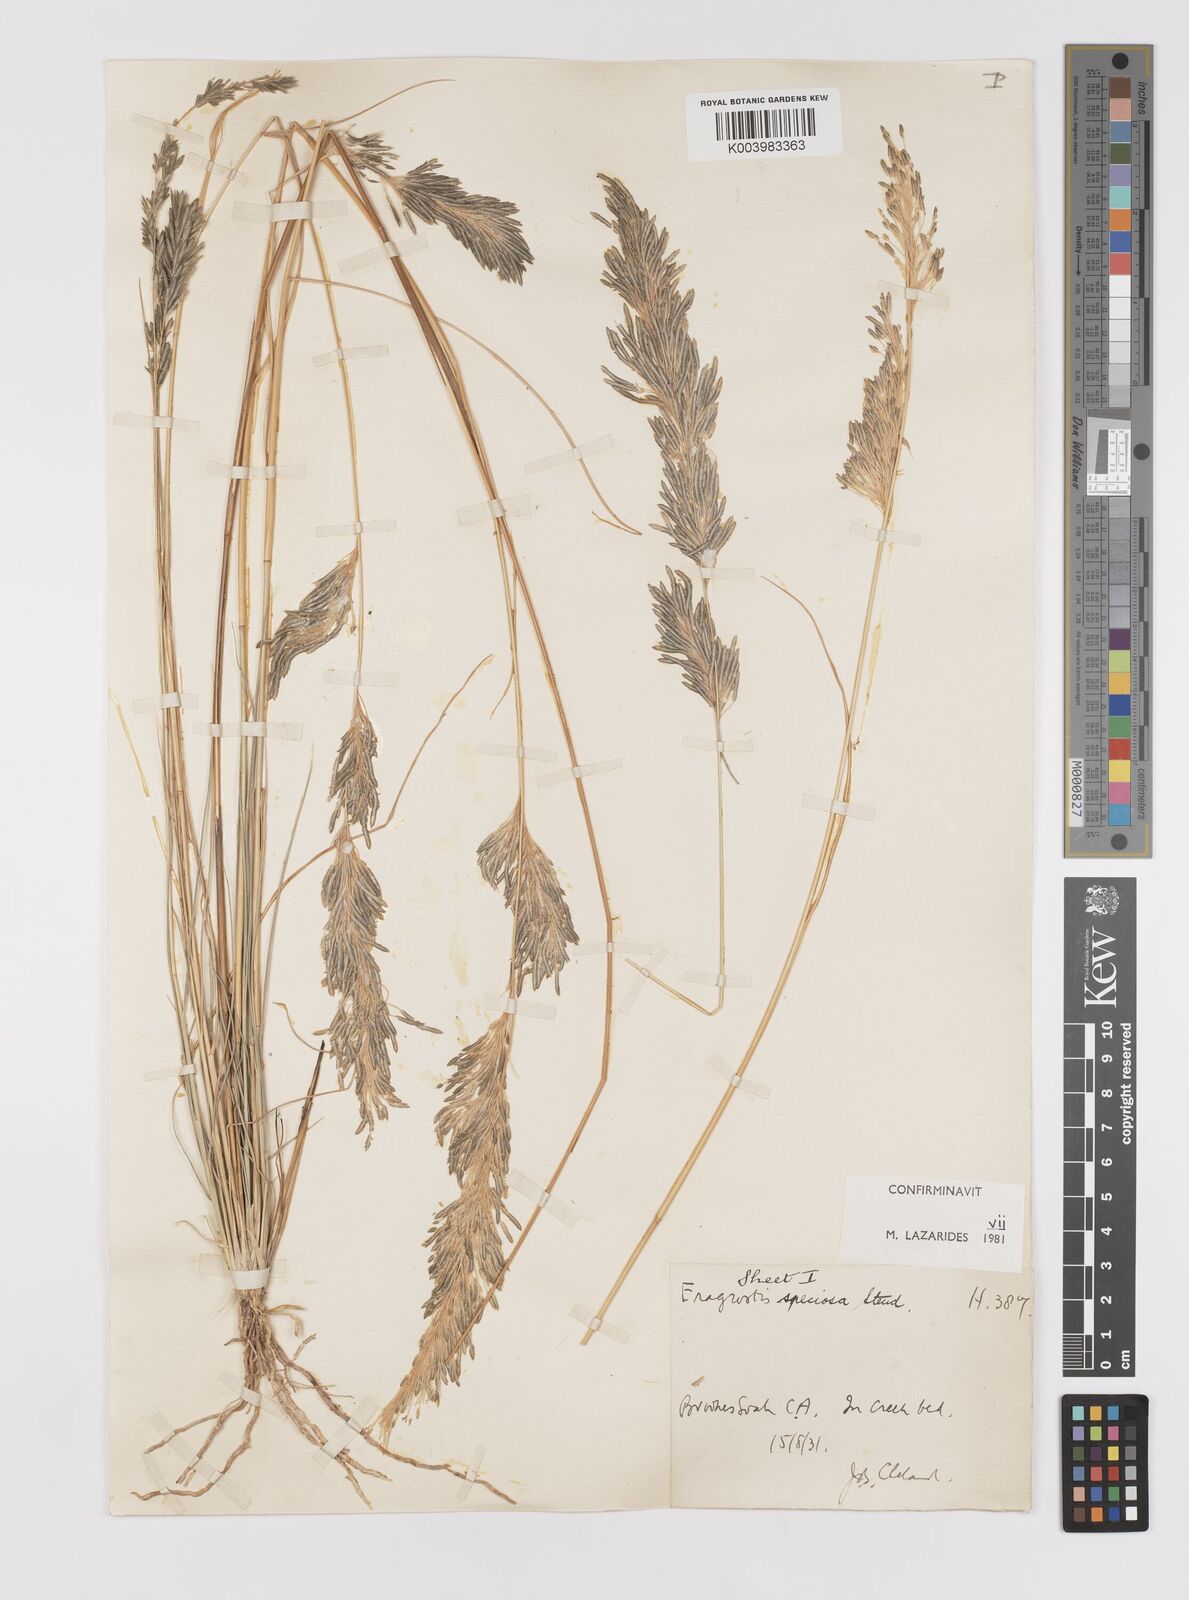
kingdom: Plantae
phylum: Tracheophyta
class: Liliopsida
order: Poales
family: Poaceae
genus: Eragrostis
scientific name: Eragrostis speciosa
